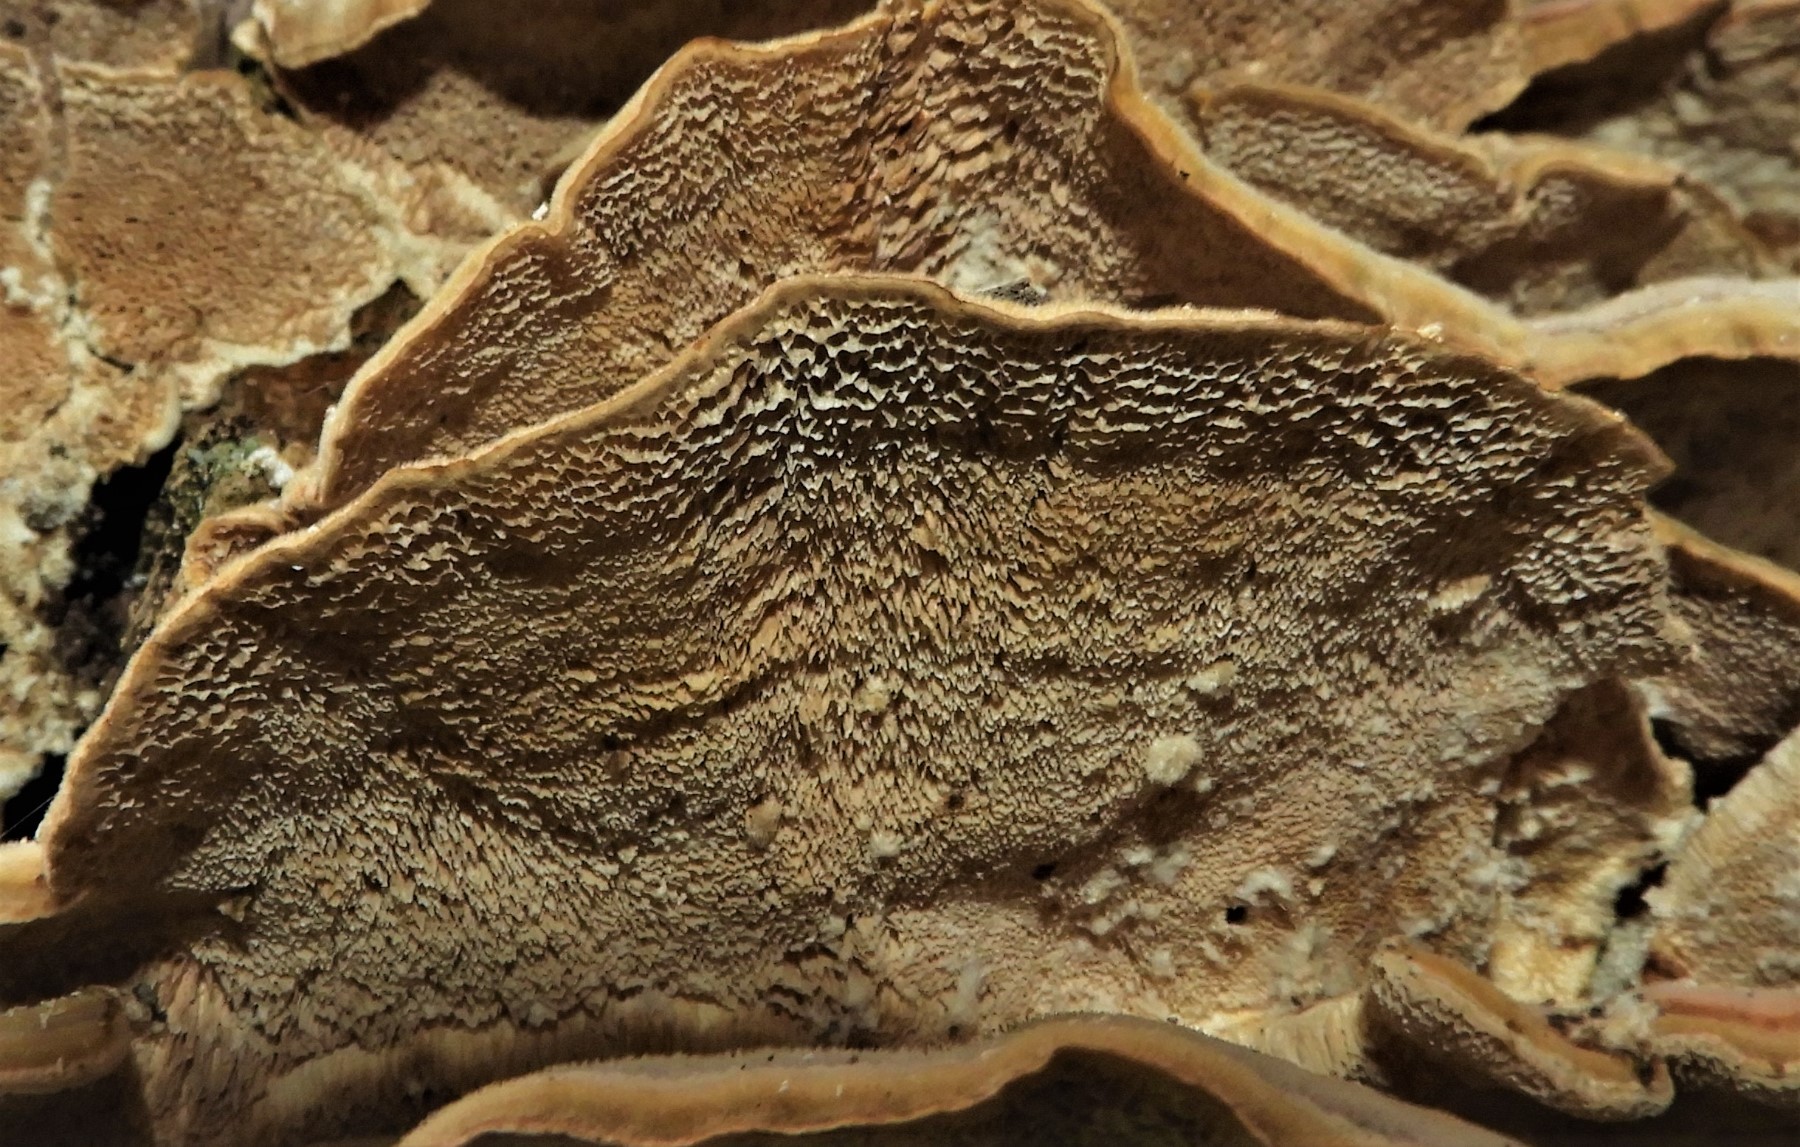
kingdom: Fungi
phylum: Basidiomycota
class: Agaricomycetes
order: Polyporales
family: Polyporaceae
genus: Trametes
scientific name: Trametes versicolor
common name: broget læderporesvamp
